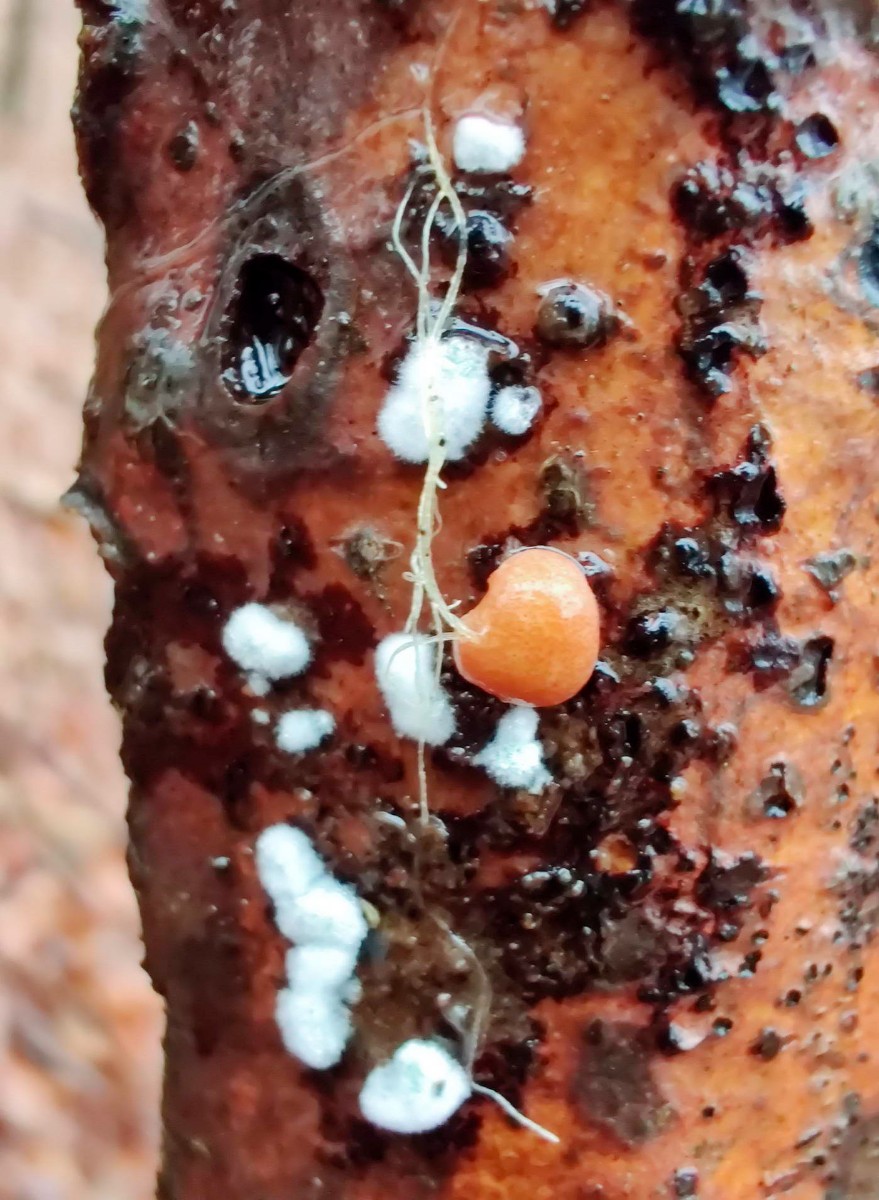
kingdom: Fungi
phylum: Ascomycota
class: Sordariomycetes
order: Hypocreales
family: Hypocreaceae
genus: Trichoderma
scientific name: Trichoderma europaeum
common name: rosabrun kødkerne
